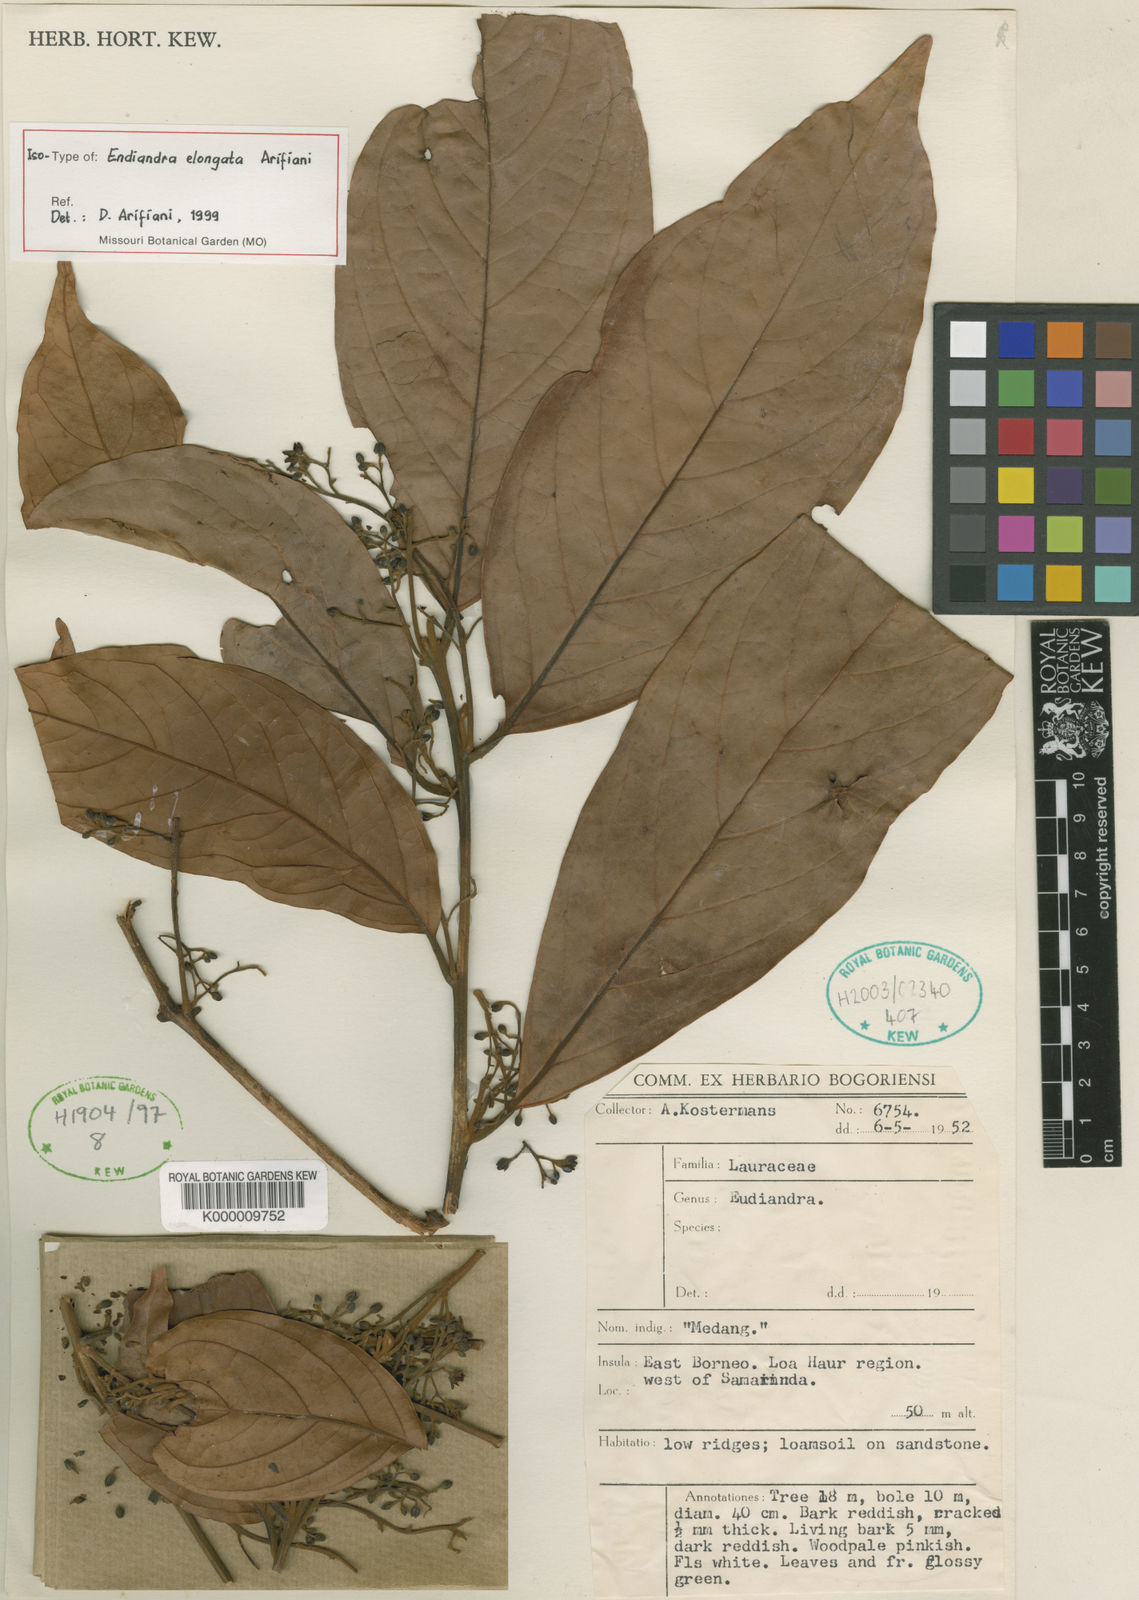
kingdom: Plantae
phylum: Tracheophyta
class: Magnoliopsida
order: Laurales
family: Lauraceae
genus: Endiandra
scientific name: Endiandra elongata
